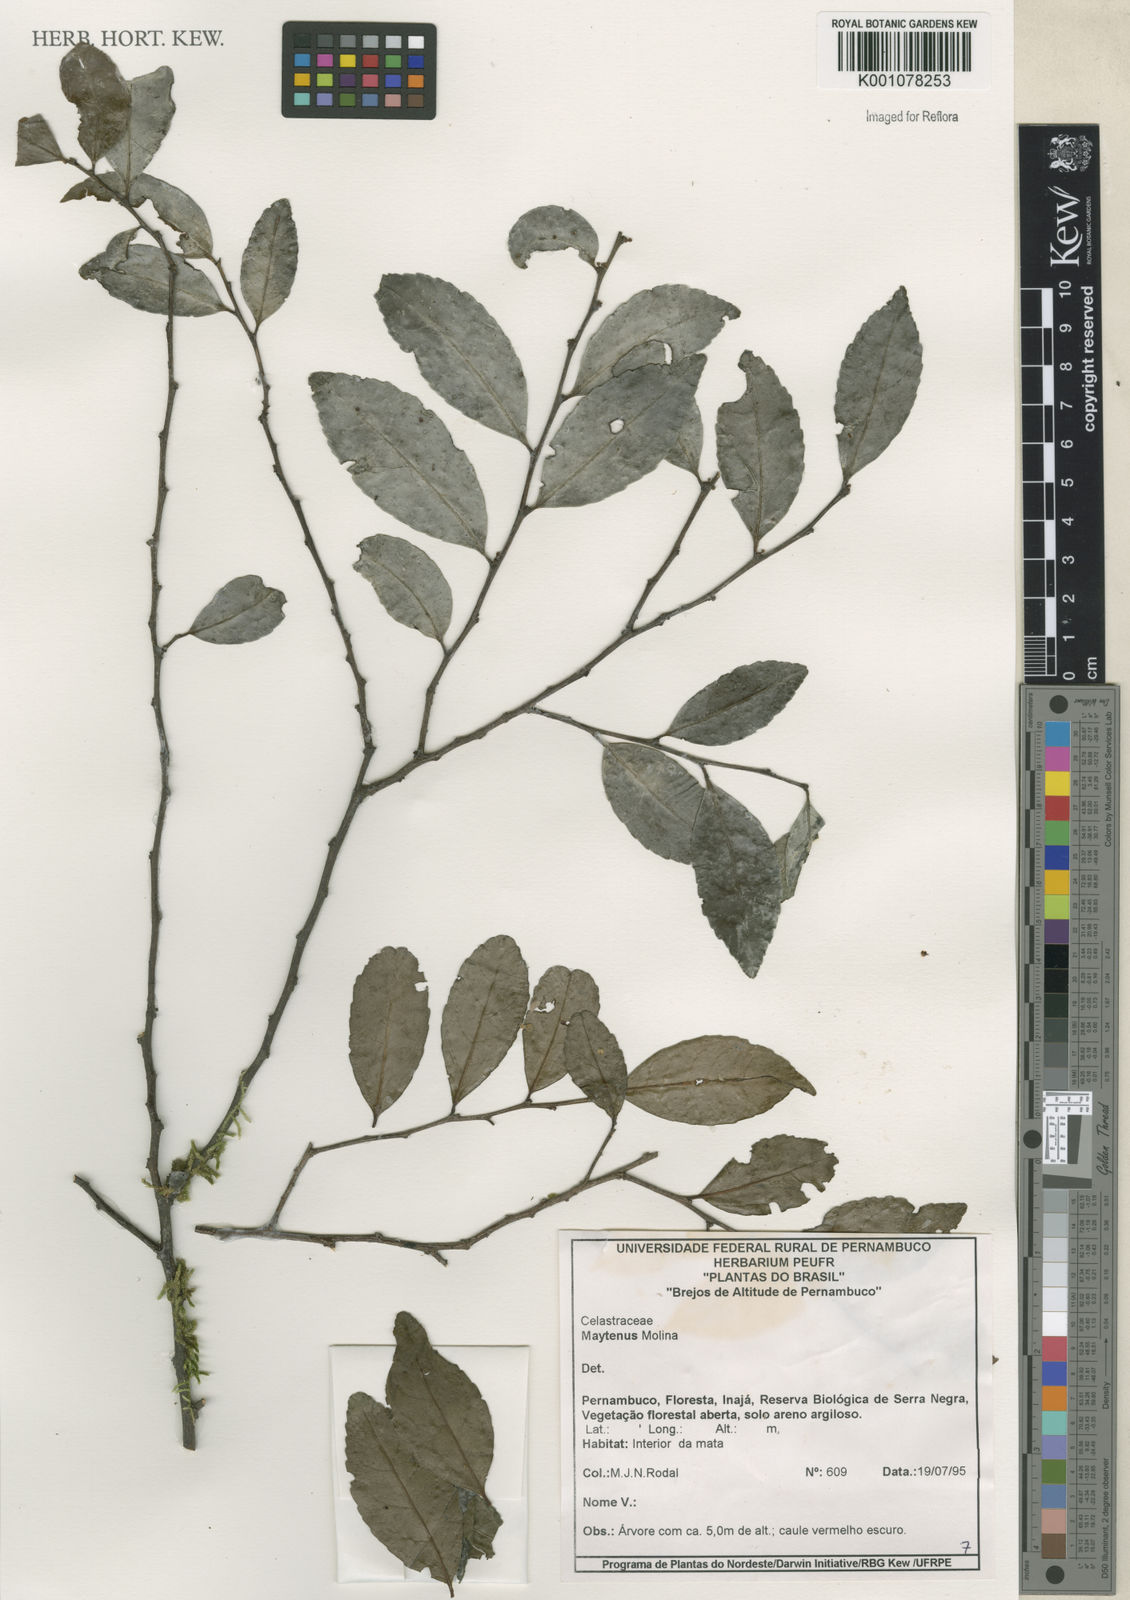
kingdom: Plantae
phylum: Tracheophyta
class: Magnoliopsida
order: Celastrales
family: Celastraceae
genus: Maytenus
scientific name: Maytenus
